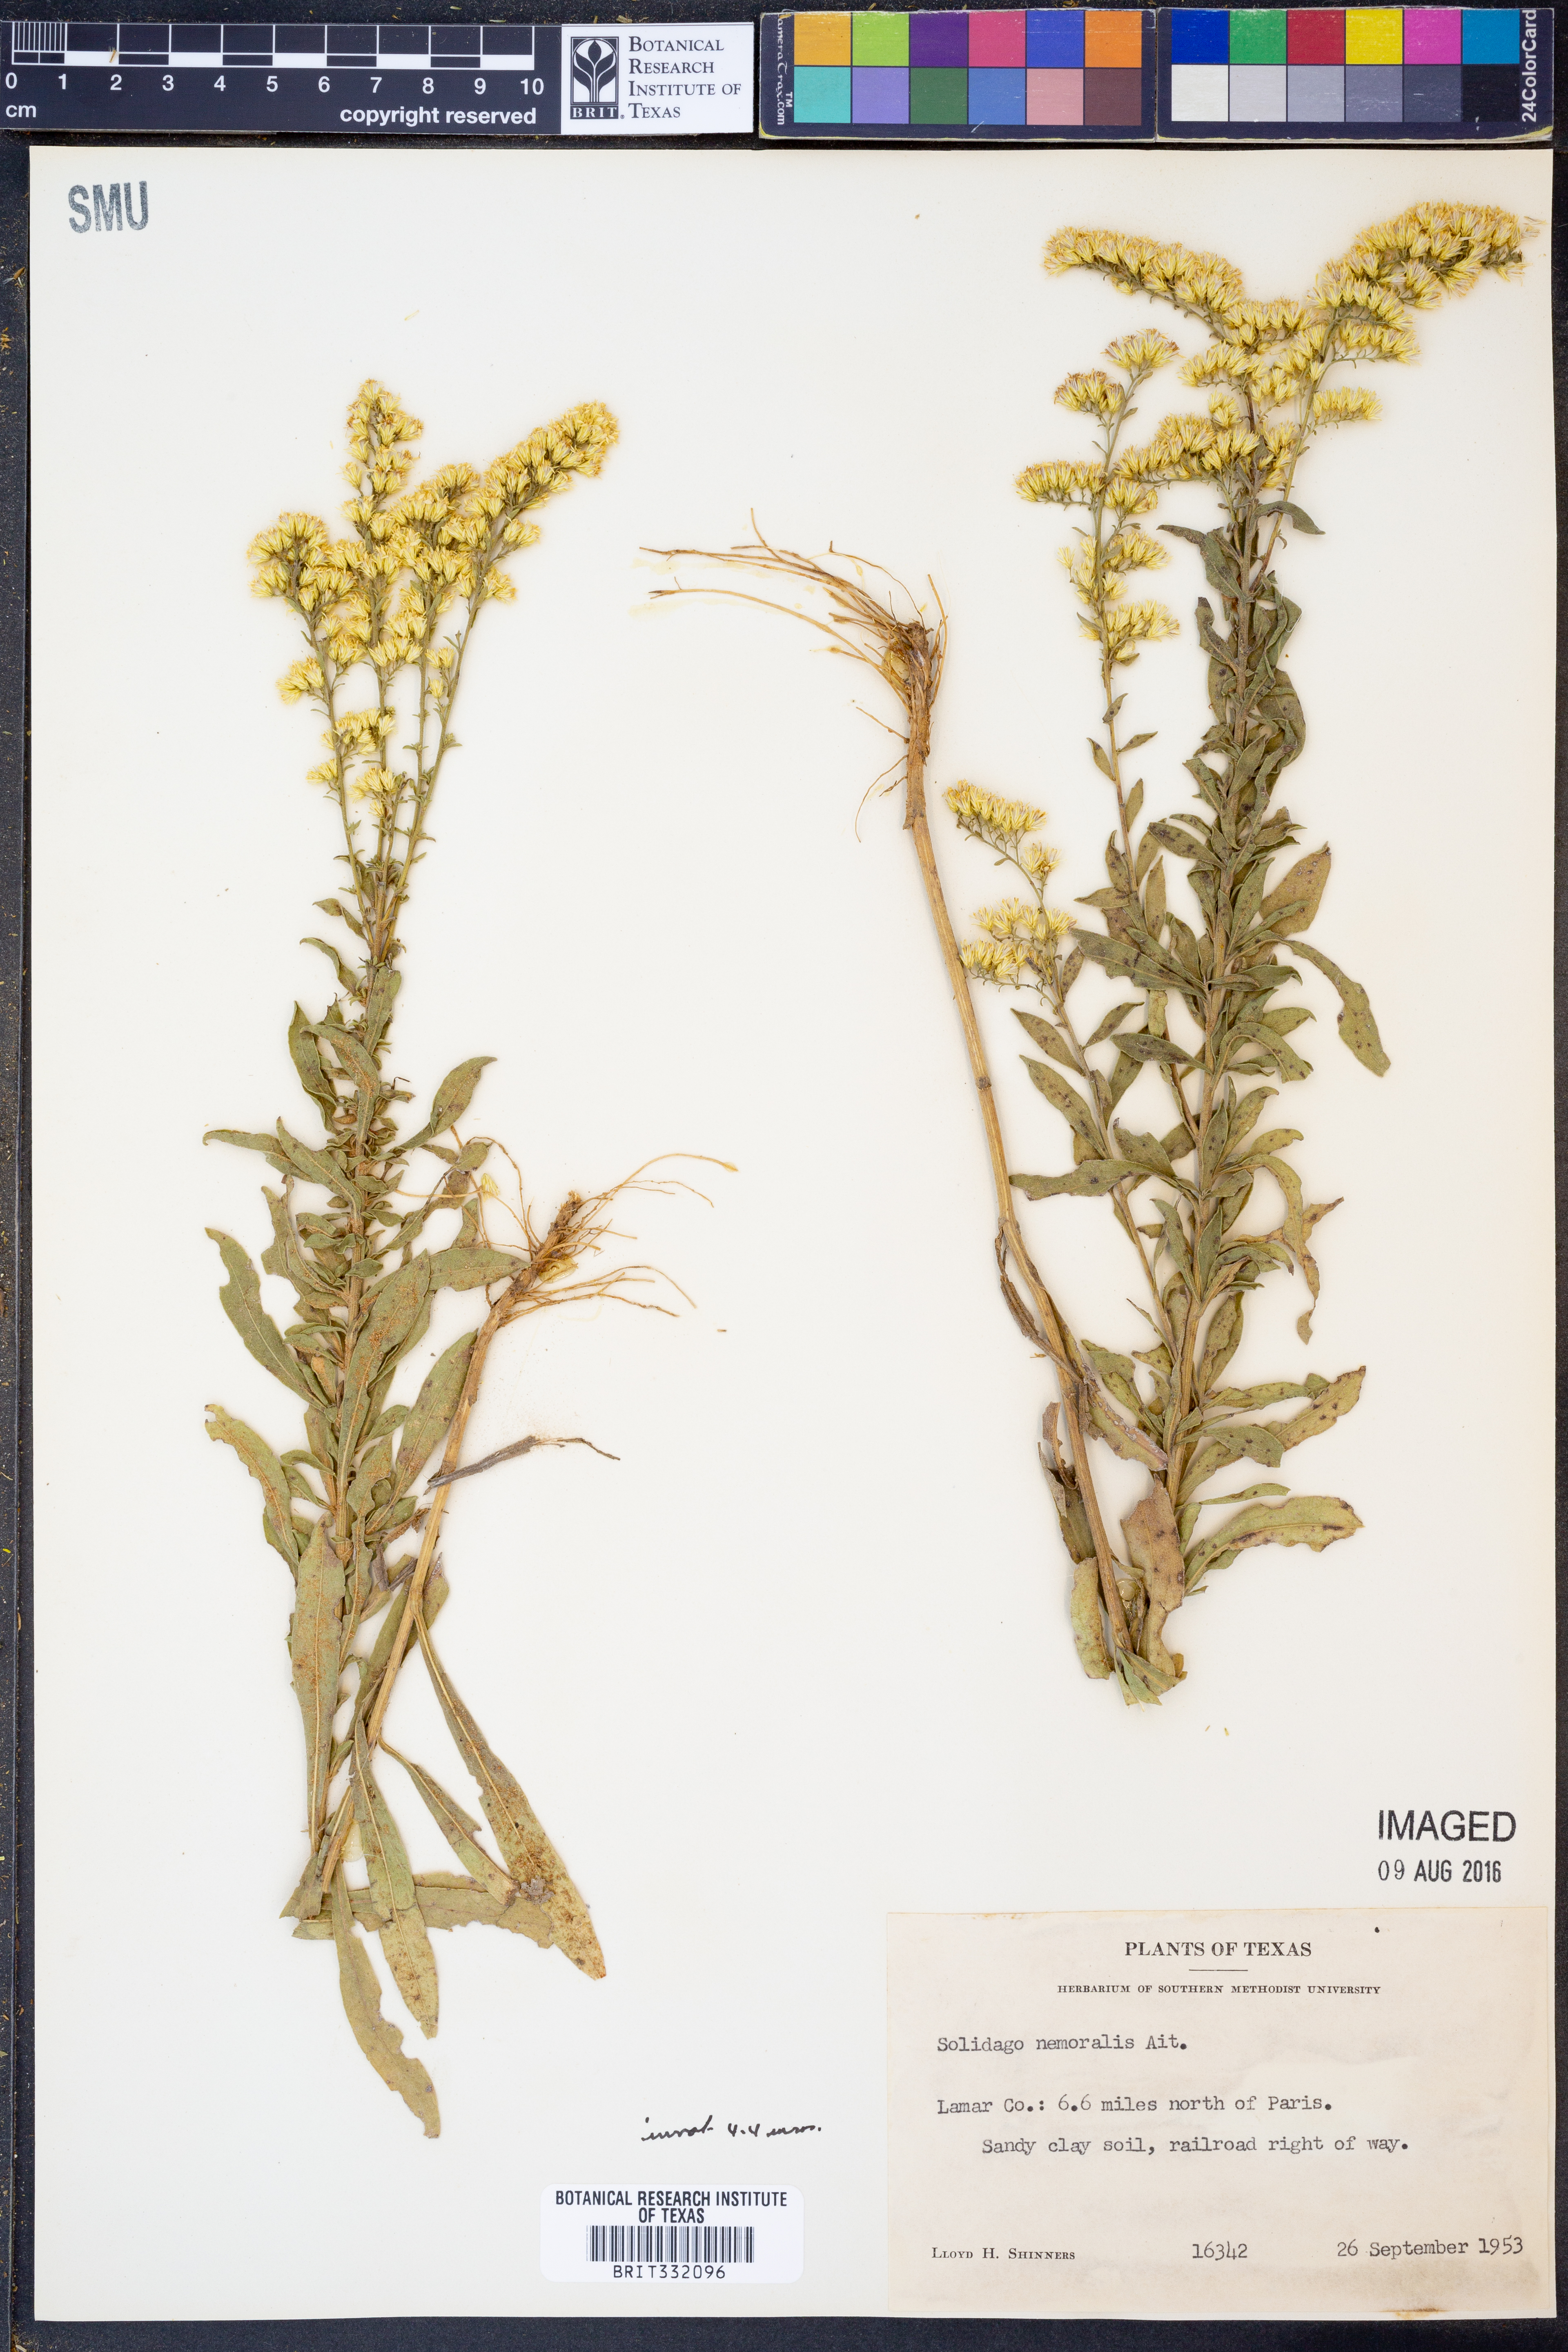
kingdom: Plantae
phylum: Tracheophyta
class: Magnoliopsida
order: Asterales
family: Asteraceae
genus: Solidago
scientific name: Solidago nemoralis
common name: Grey goldenrod
